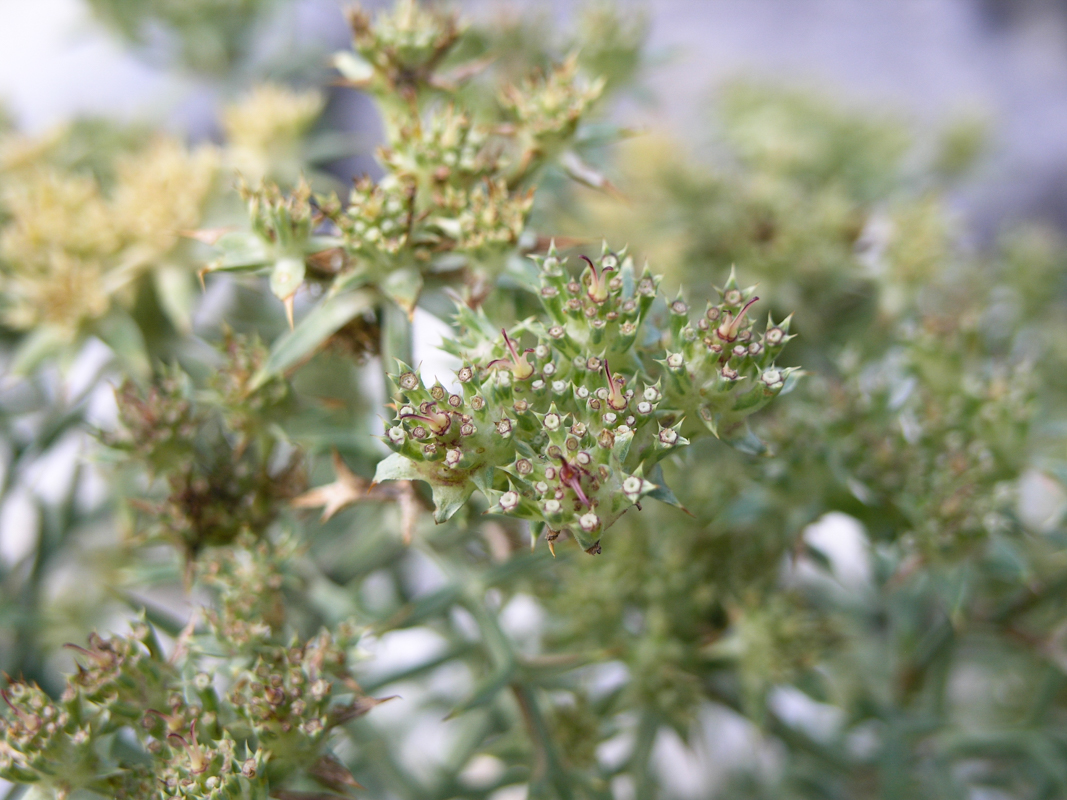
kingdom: Plantae
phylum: Tracheophyta
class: Magnoliopsida
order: Apiales
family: Apiaceae
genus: Echinophora
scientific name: Echinophora spinosa
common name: Prickly samphire
